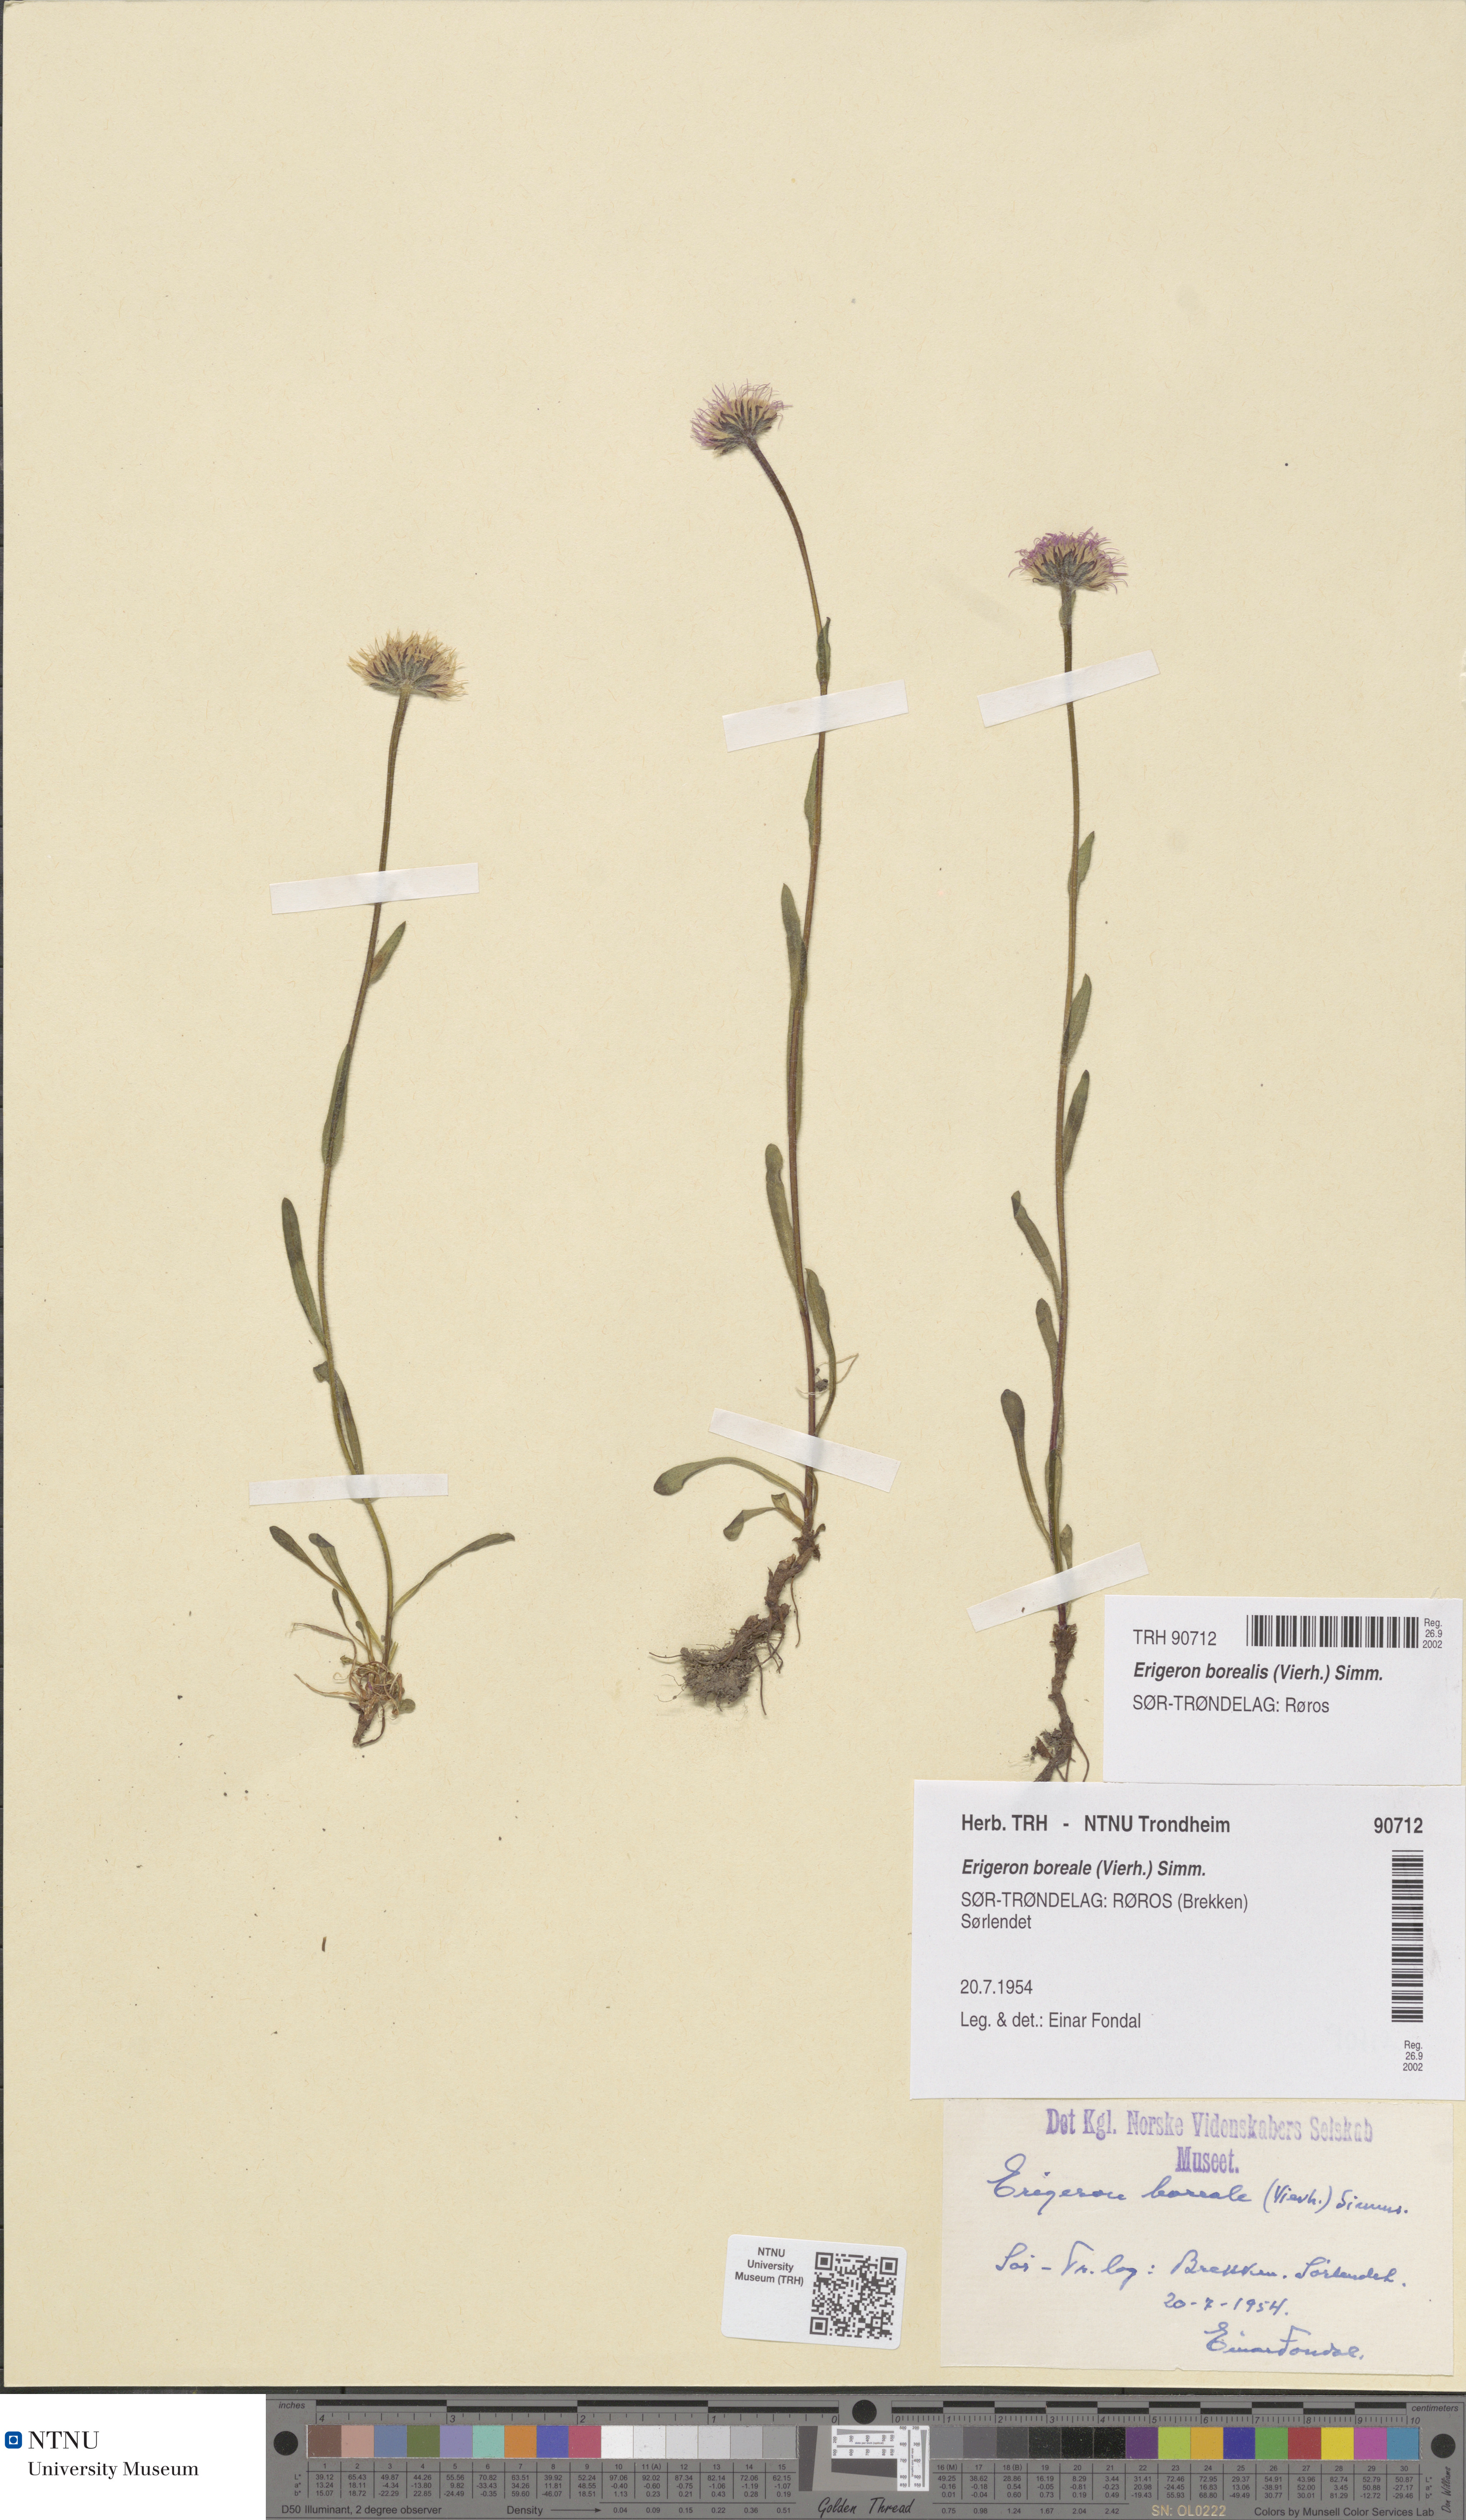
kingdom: Plantae
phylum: Tracheophyta
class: Magnoliopsida
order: Asterales
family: Asteraceae
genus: Erigeron
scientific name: Erigeron borealis
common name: Alpine fleabane
